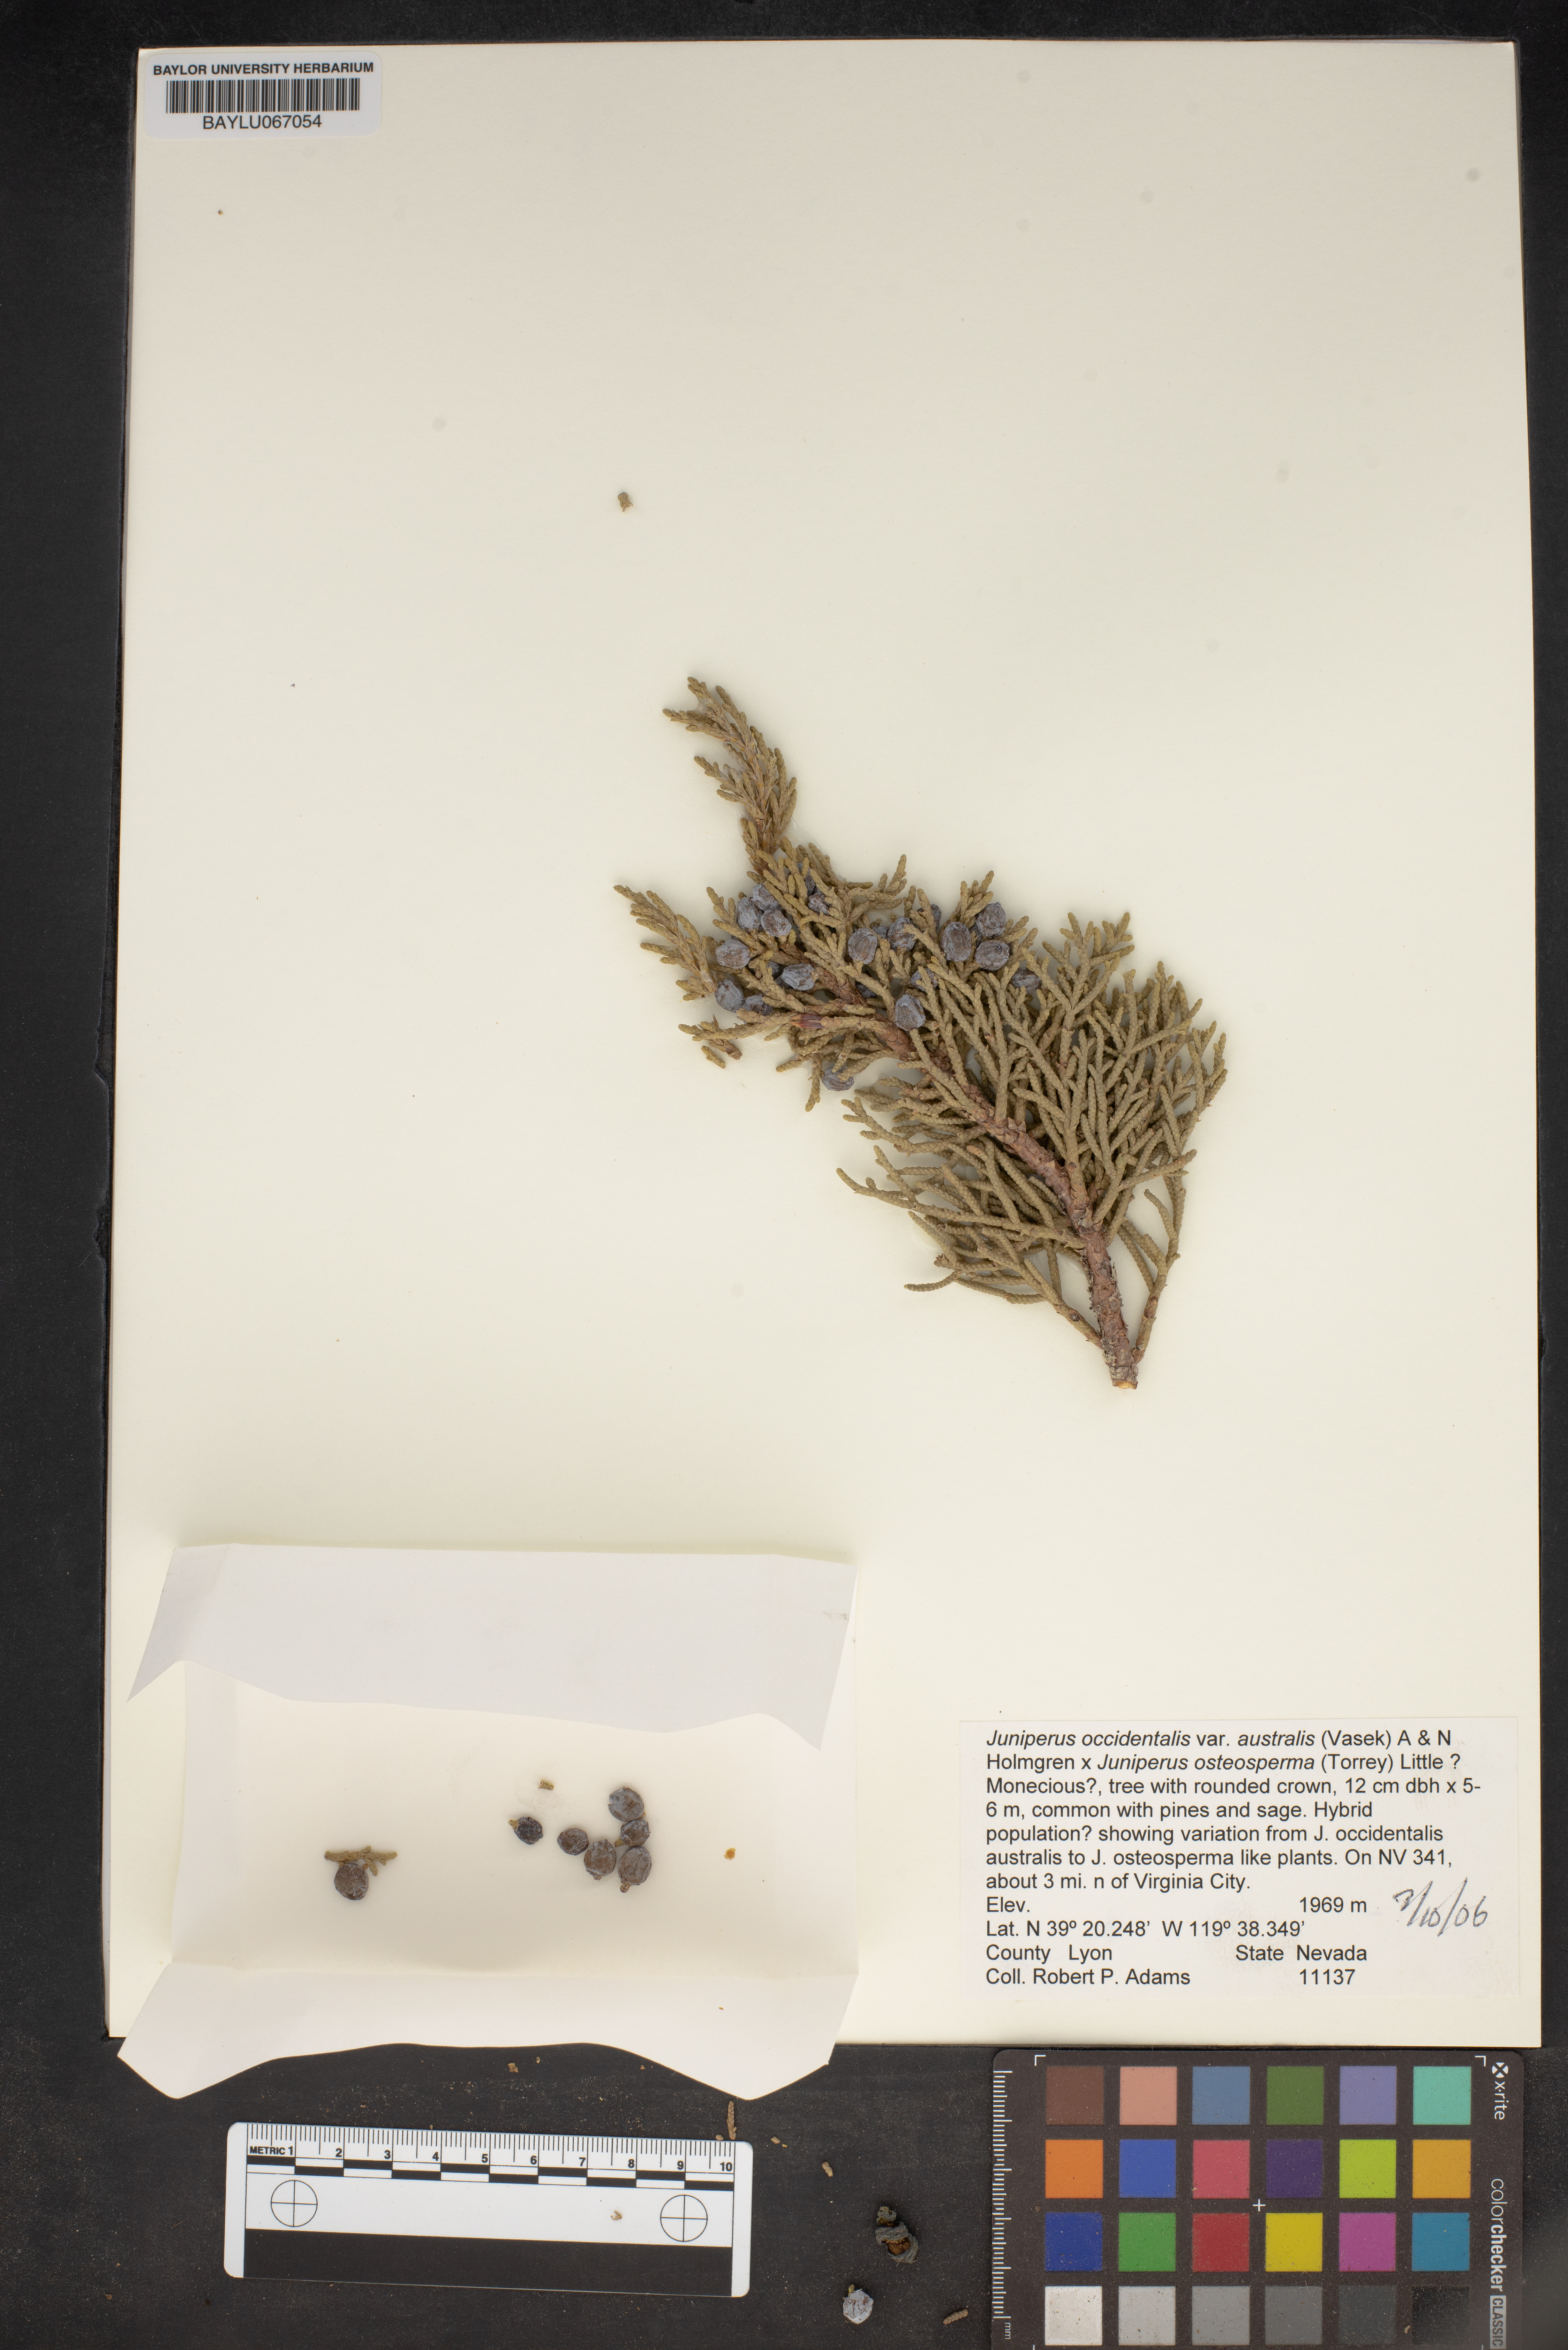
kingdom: Plantae
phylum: Tracheophyta
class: Pinopsida
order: Pinales
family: Cupressaceae
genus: Juniperus
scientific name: Juniperus occidentalis
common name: Western juniper
